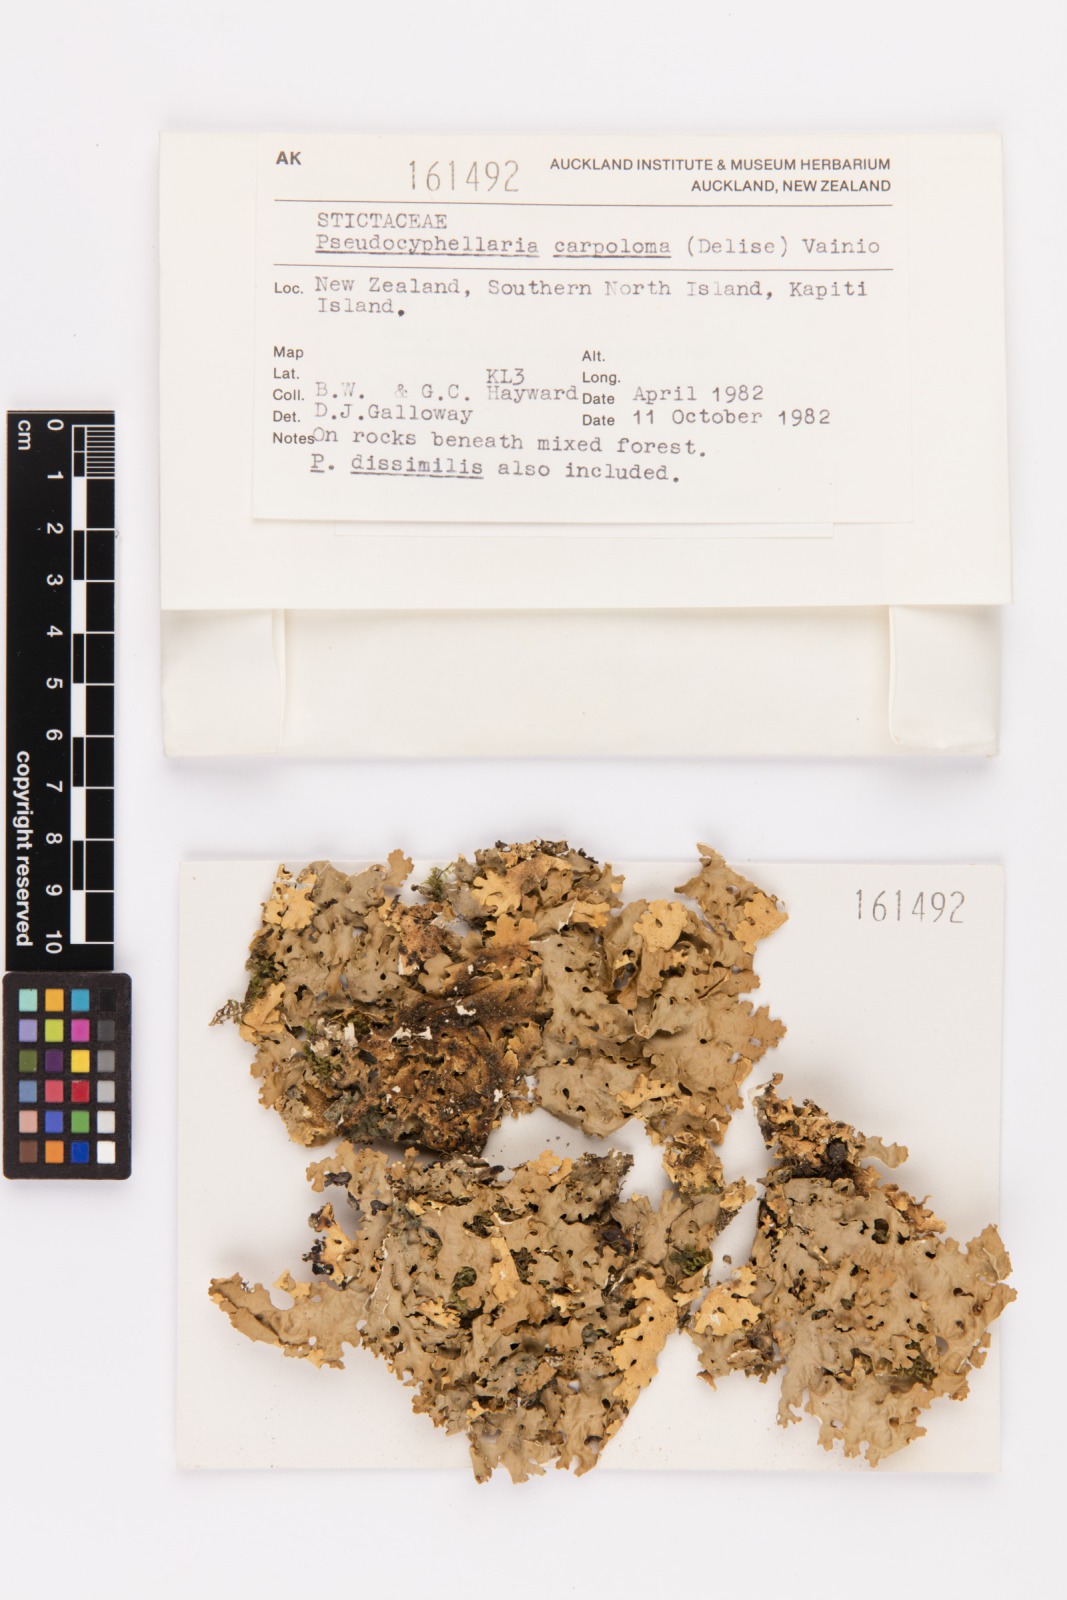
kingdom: Fungi
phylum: Ascomycota
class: Lecanoromycetes
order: Peltigerales
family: Lobariaceae
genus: Pseudocyphellaria
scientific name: Pseudocyphellaria carpoloma
